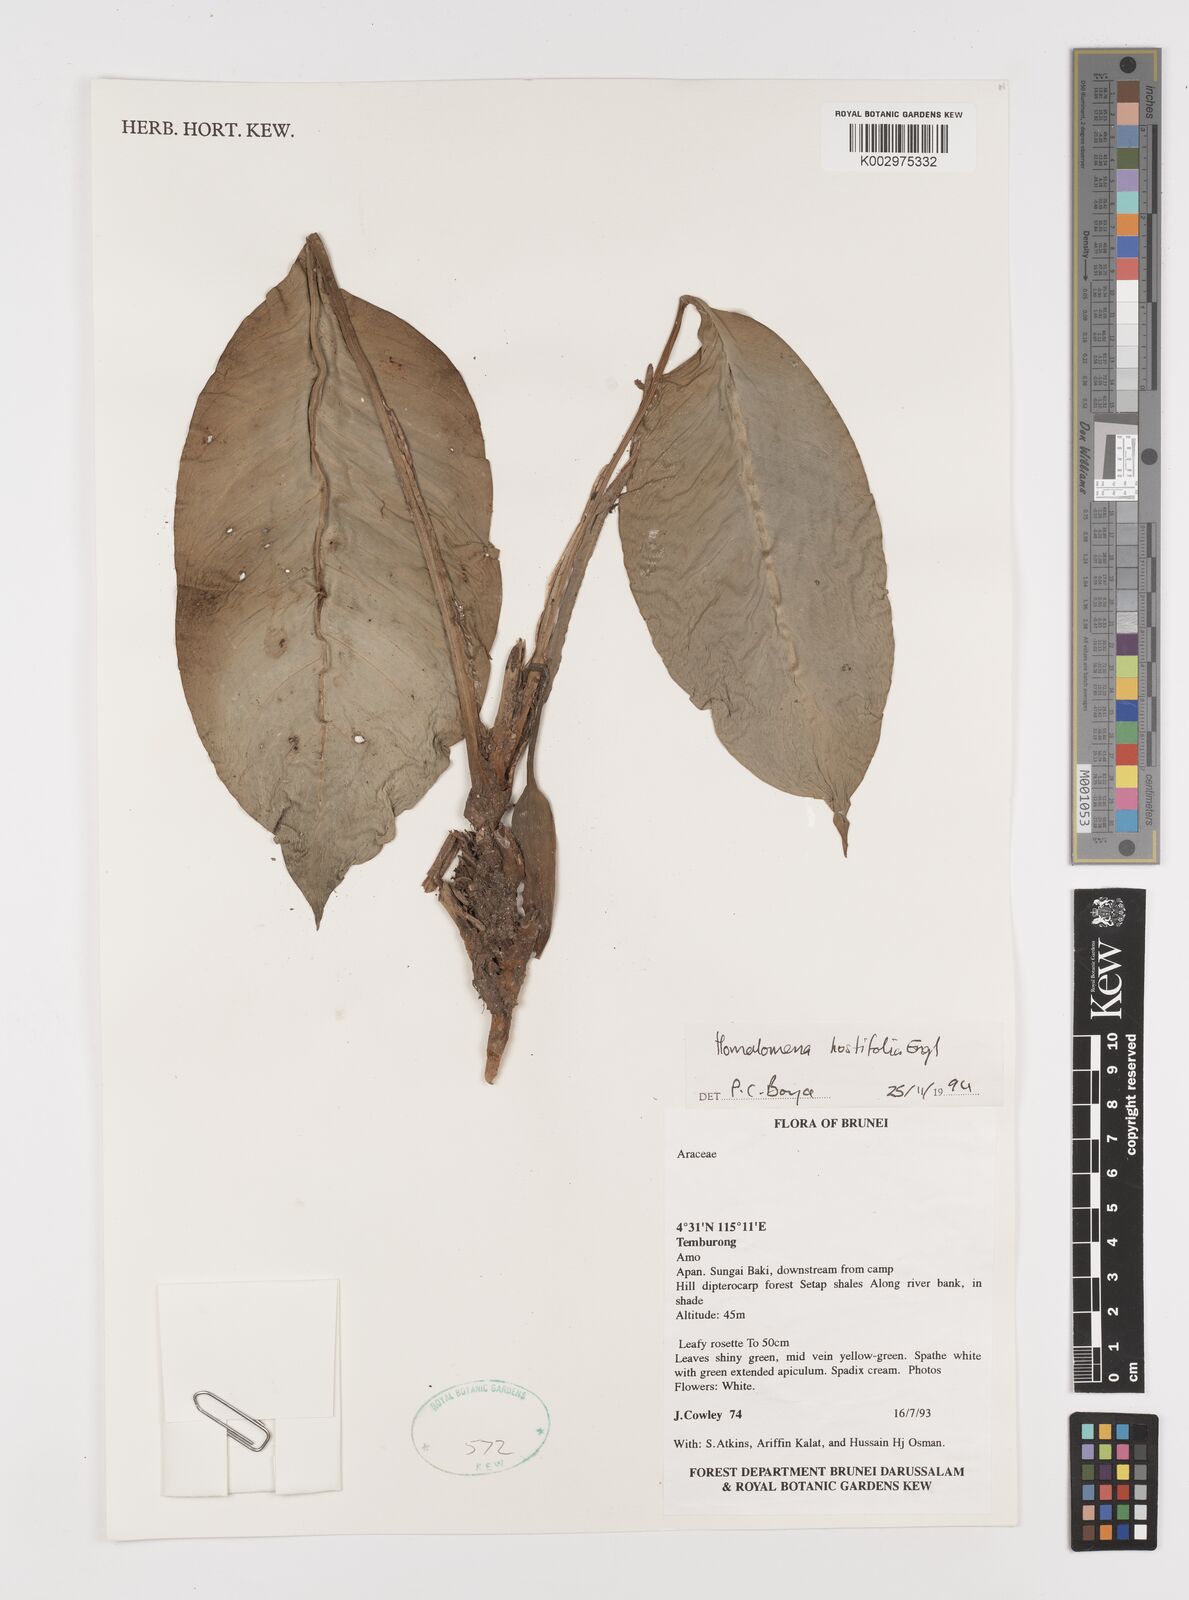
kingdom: Plantae
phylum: Tracheophyta
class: Liliopsida
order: Alismatales
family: Araceae
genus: Homalomena
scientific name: Homalomena ovata
